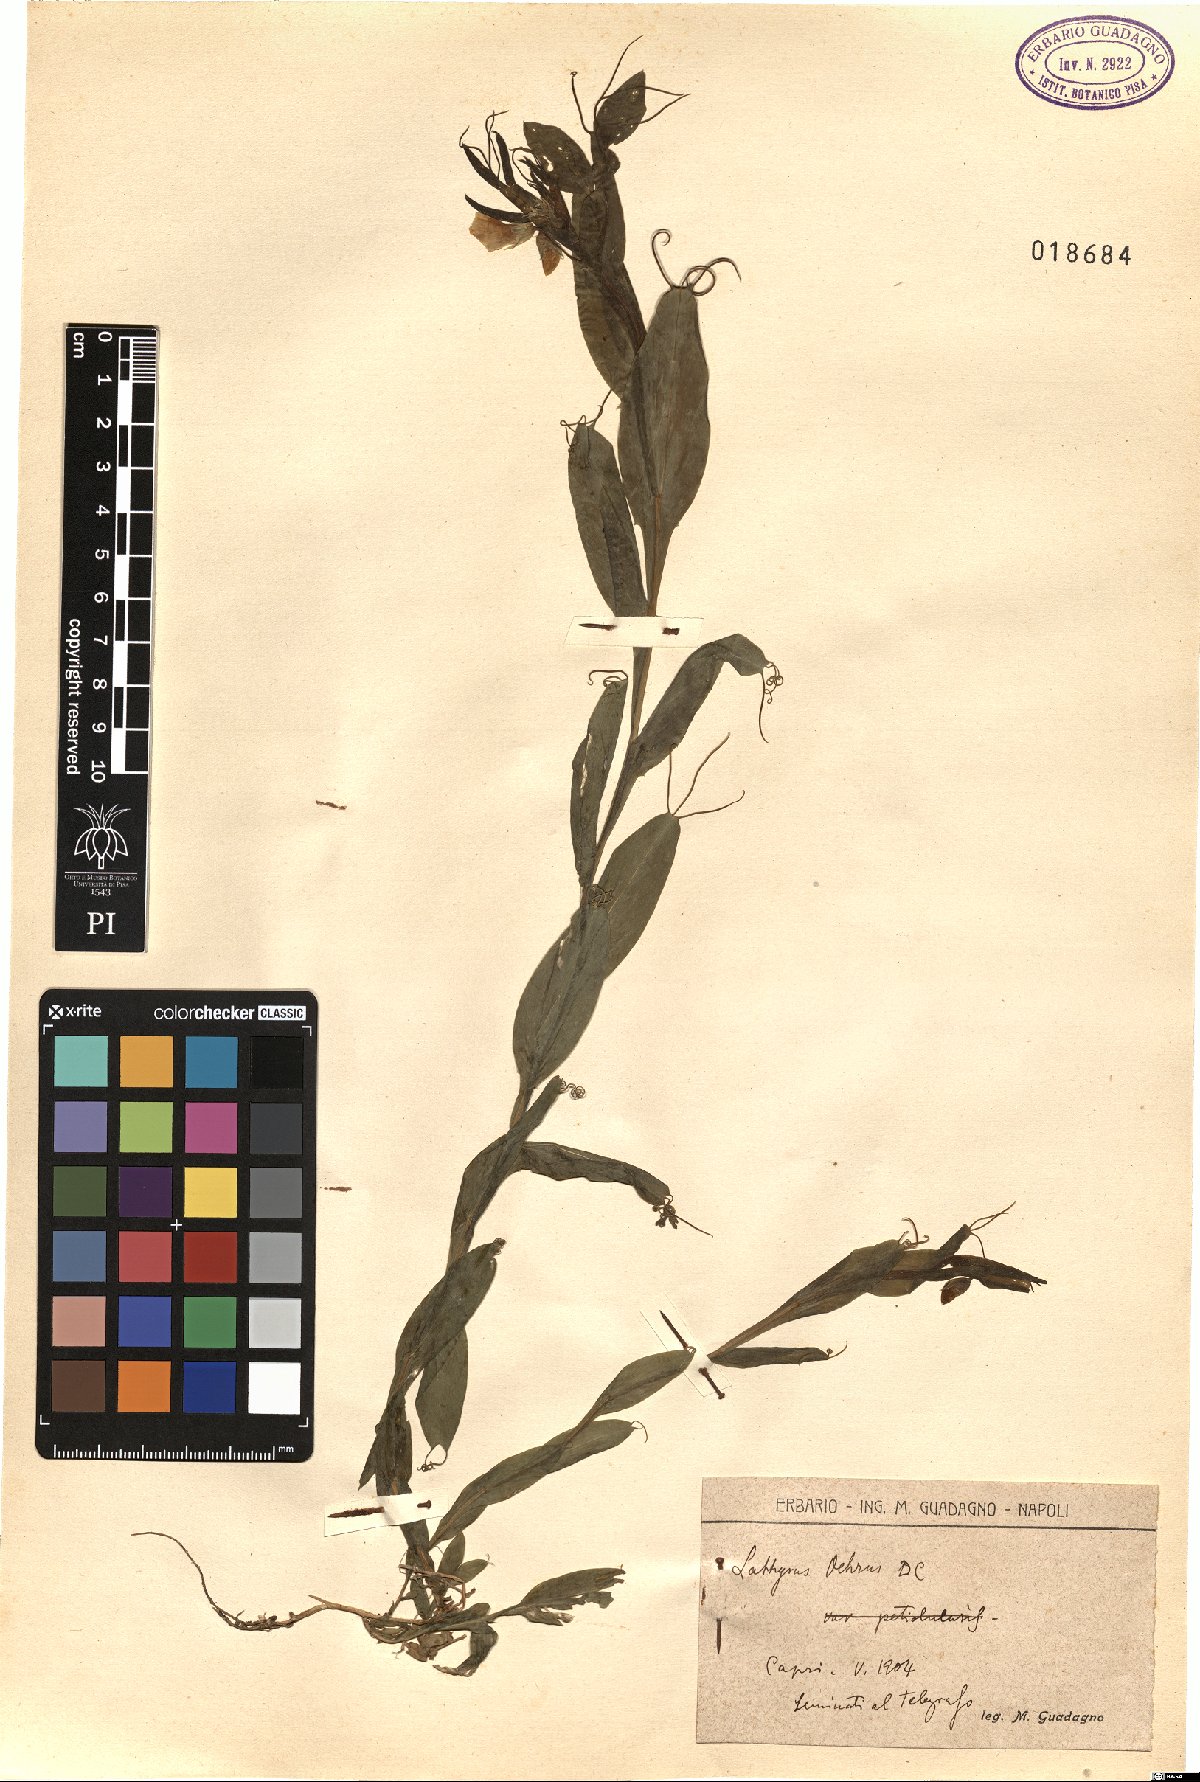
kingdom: Plantae
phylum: Tracheophyta
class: Magnoliopsida
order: Fabales
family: Fabaceae
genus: Lathyrus
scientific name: Lathyrus ochrus
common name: Winged vetchling
